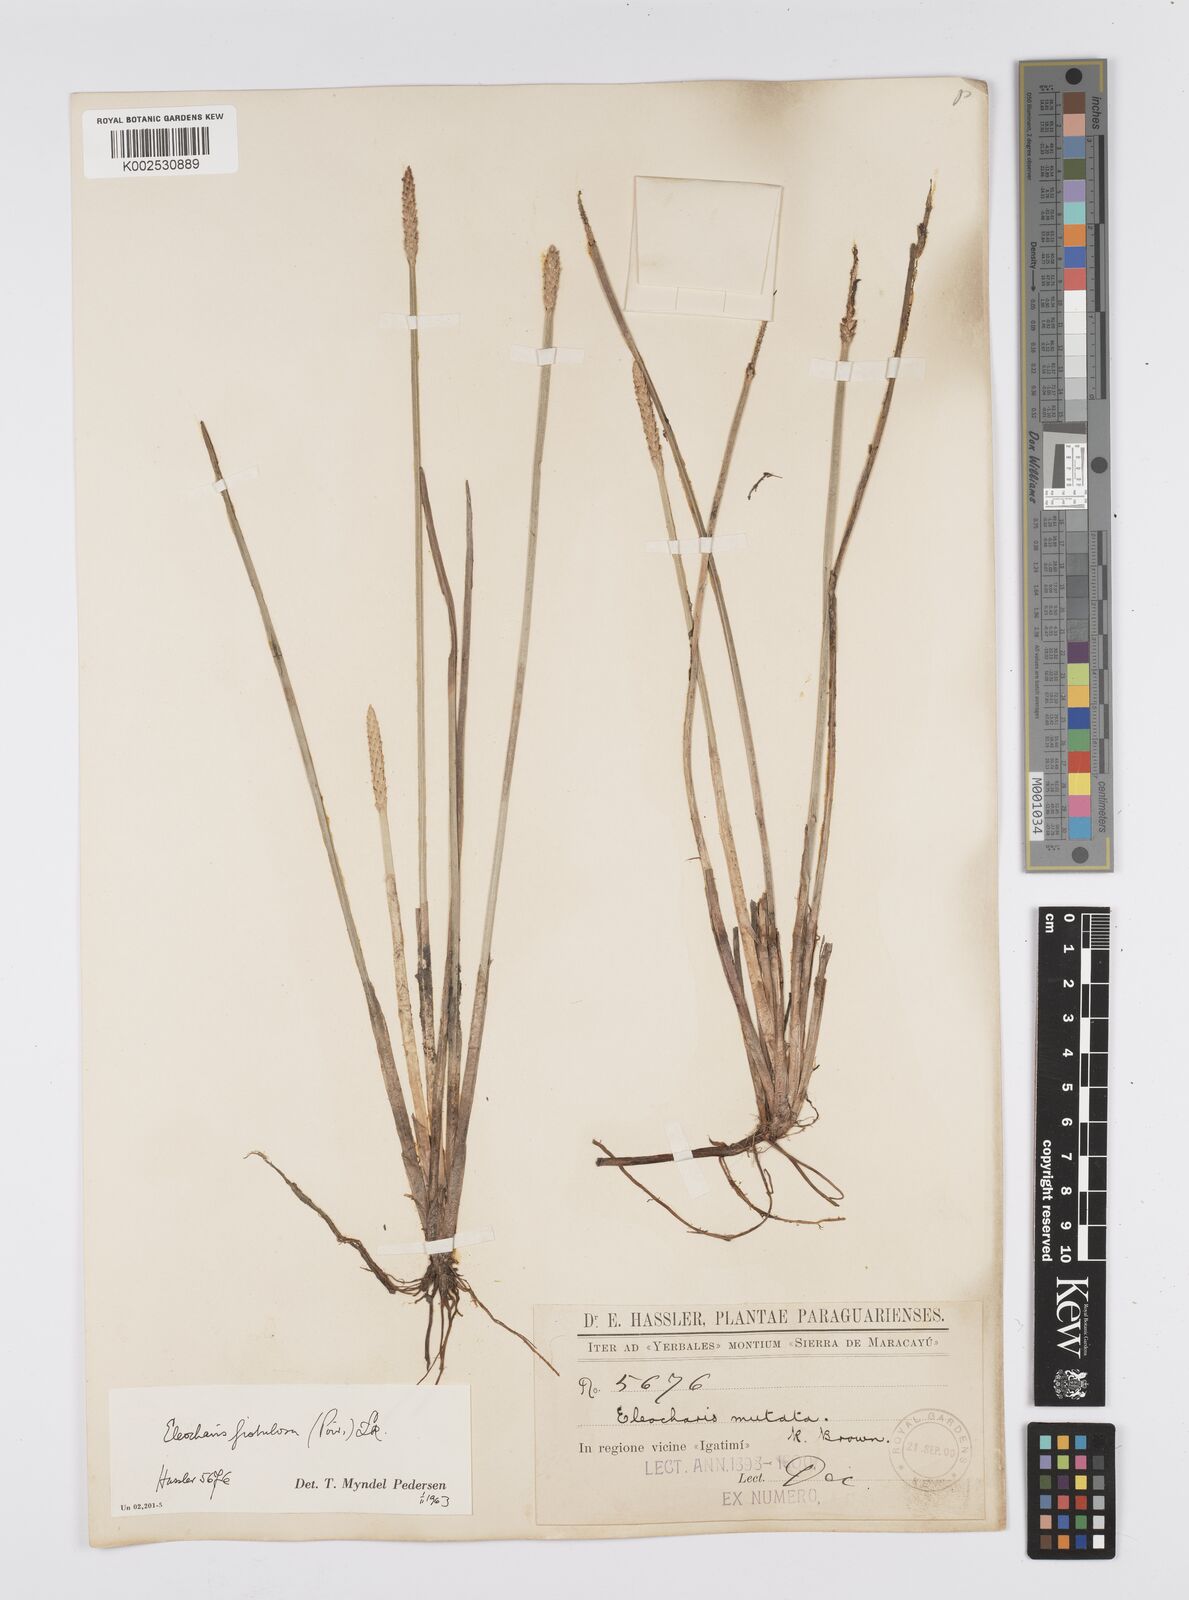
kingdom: Plantae
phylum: Tracheophyta
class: Liliopsida
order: Poales
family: Cyperaceae
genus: Eleocharis
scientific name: Eleocharis acutangula
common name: Acute spikerush
